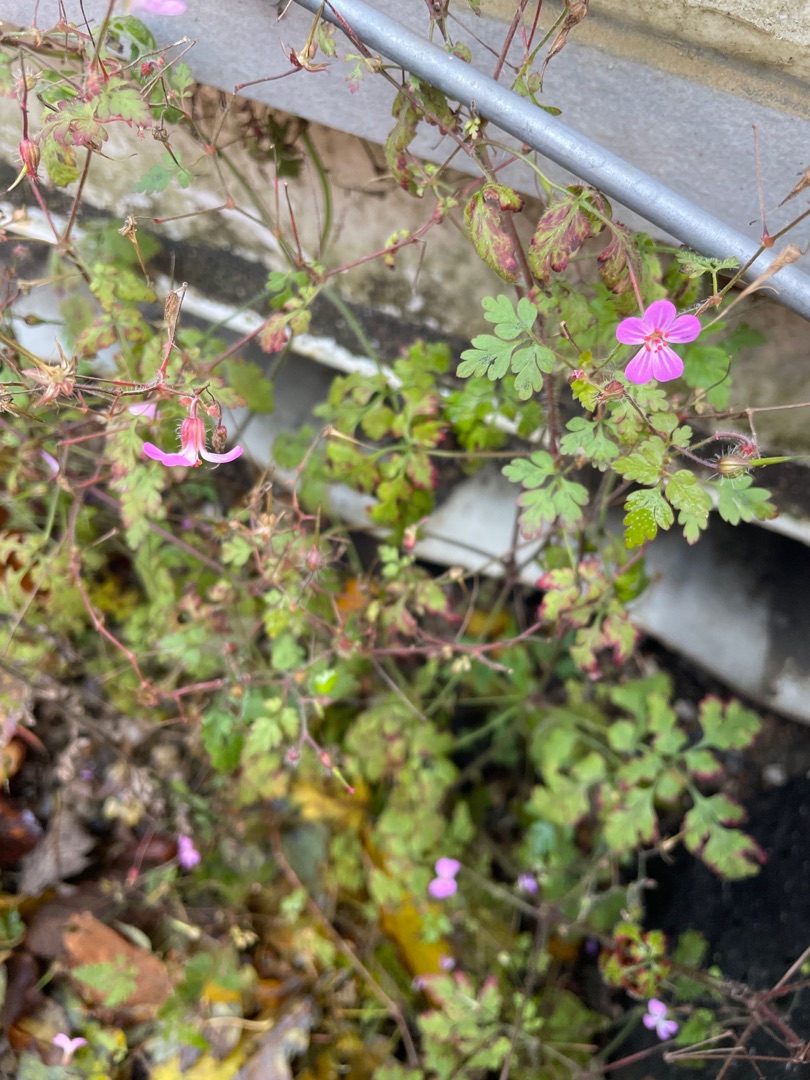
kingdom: Plantae
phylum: Tracheophyta
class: Magnoliopsida
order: Geraniales
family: Geraniaceae
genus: Geranium
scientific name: Geranium robertianum
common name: Stinkende storkenæb
